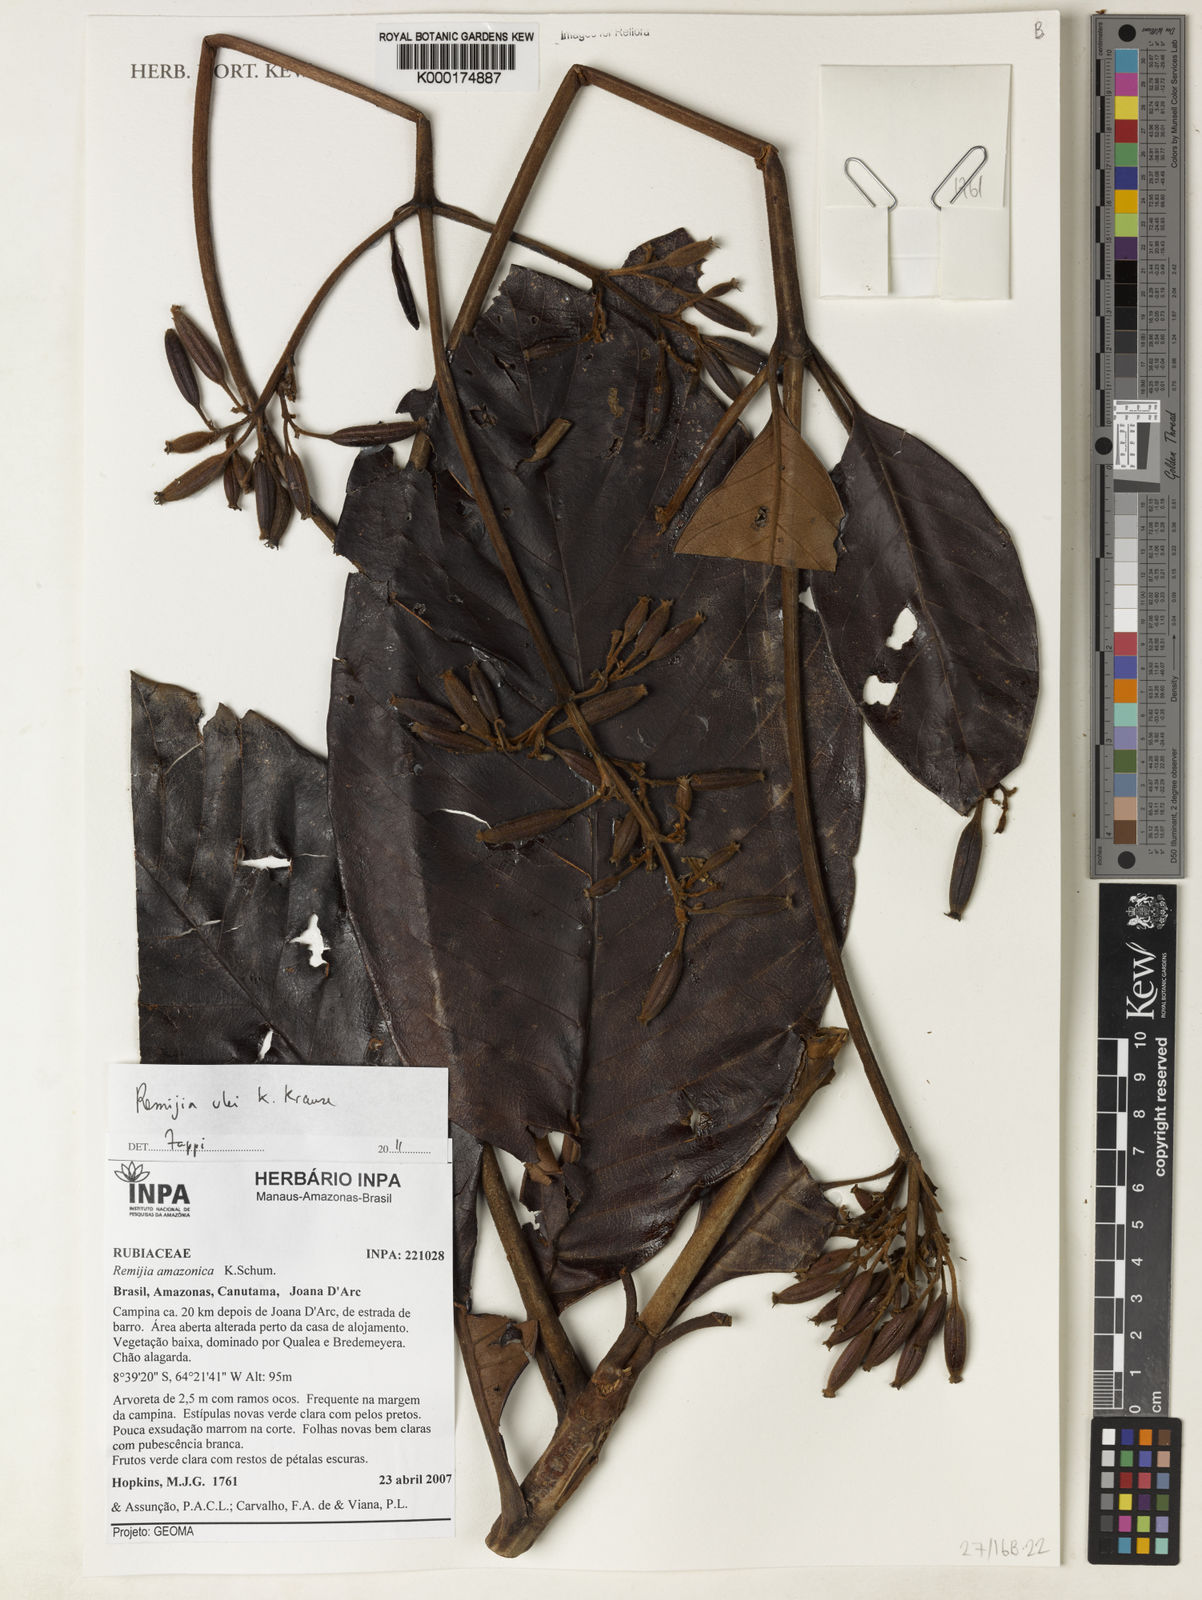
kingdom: Plantae
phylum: Tracheophyta
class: Magnoliopsida
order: Gentianales
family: Rubiaceae
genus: Remijia
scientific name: Remijia ulei
